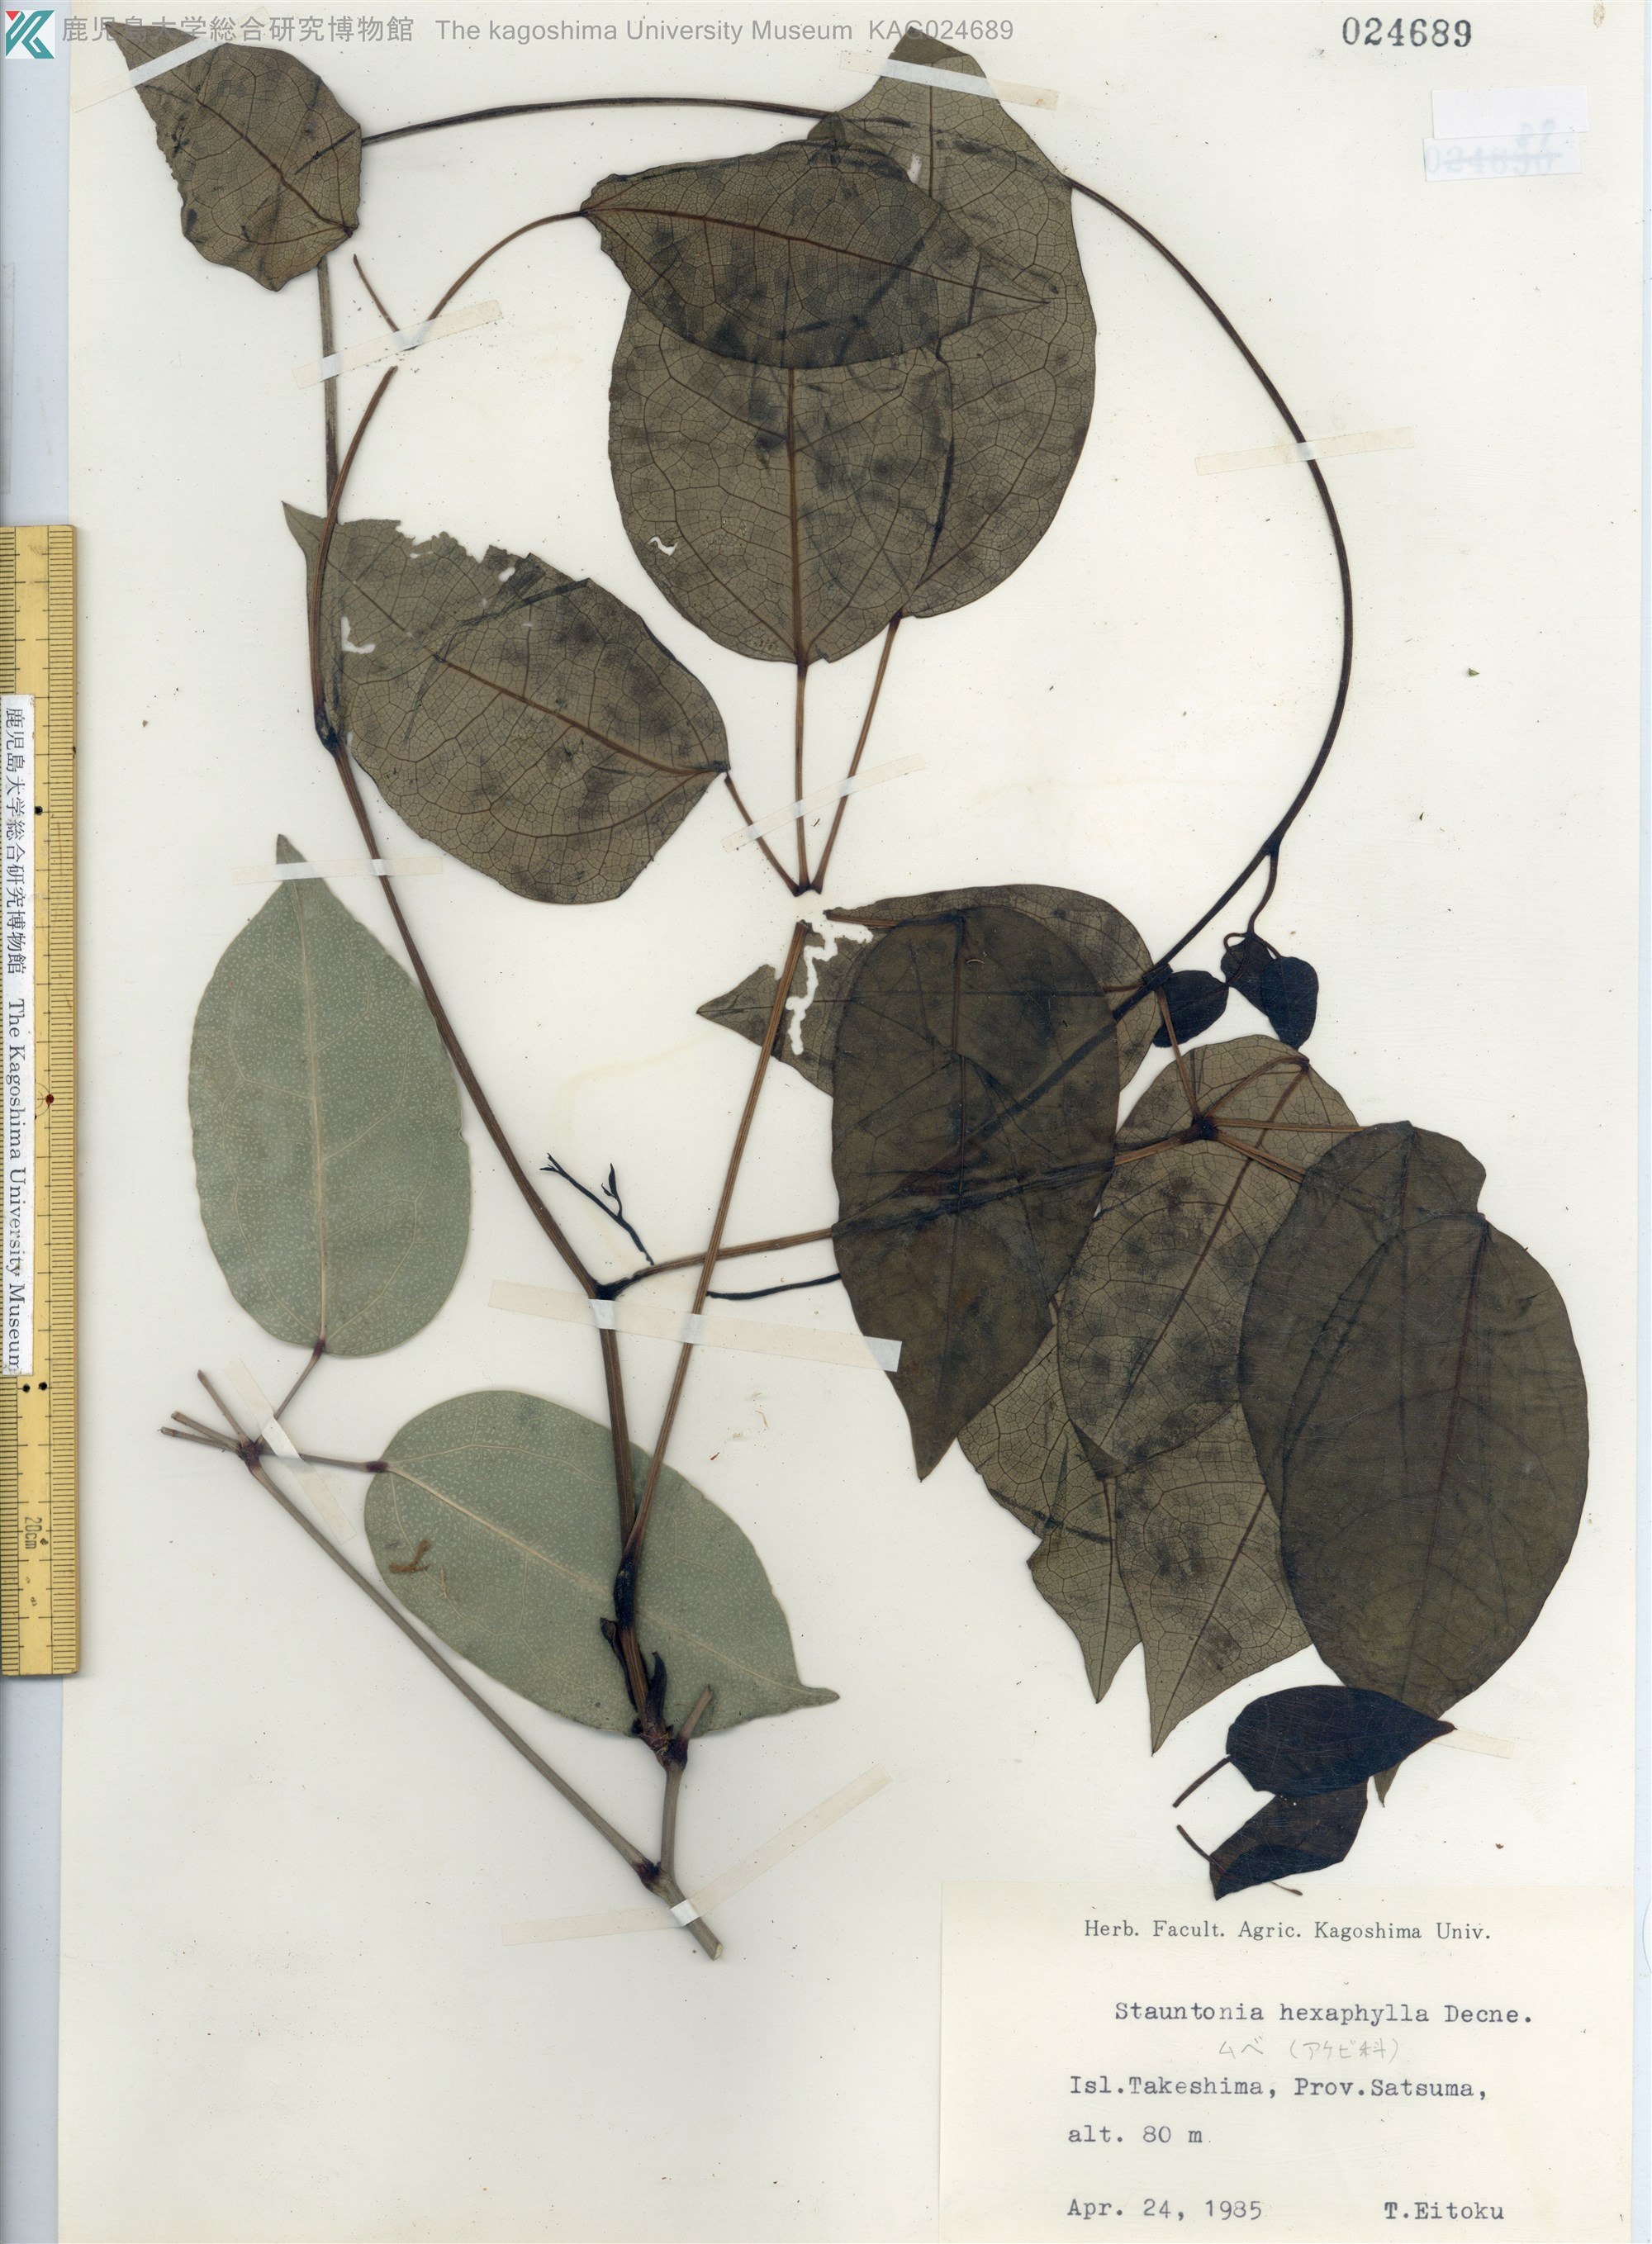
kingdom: Plantae
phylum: Tracheophyta
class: Magnoliopsida
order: Ranunculales
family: Lardizabalaceae
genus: Stauntonia
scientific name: Stauntonia hexaphylla
